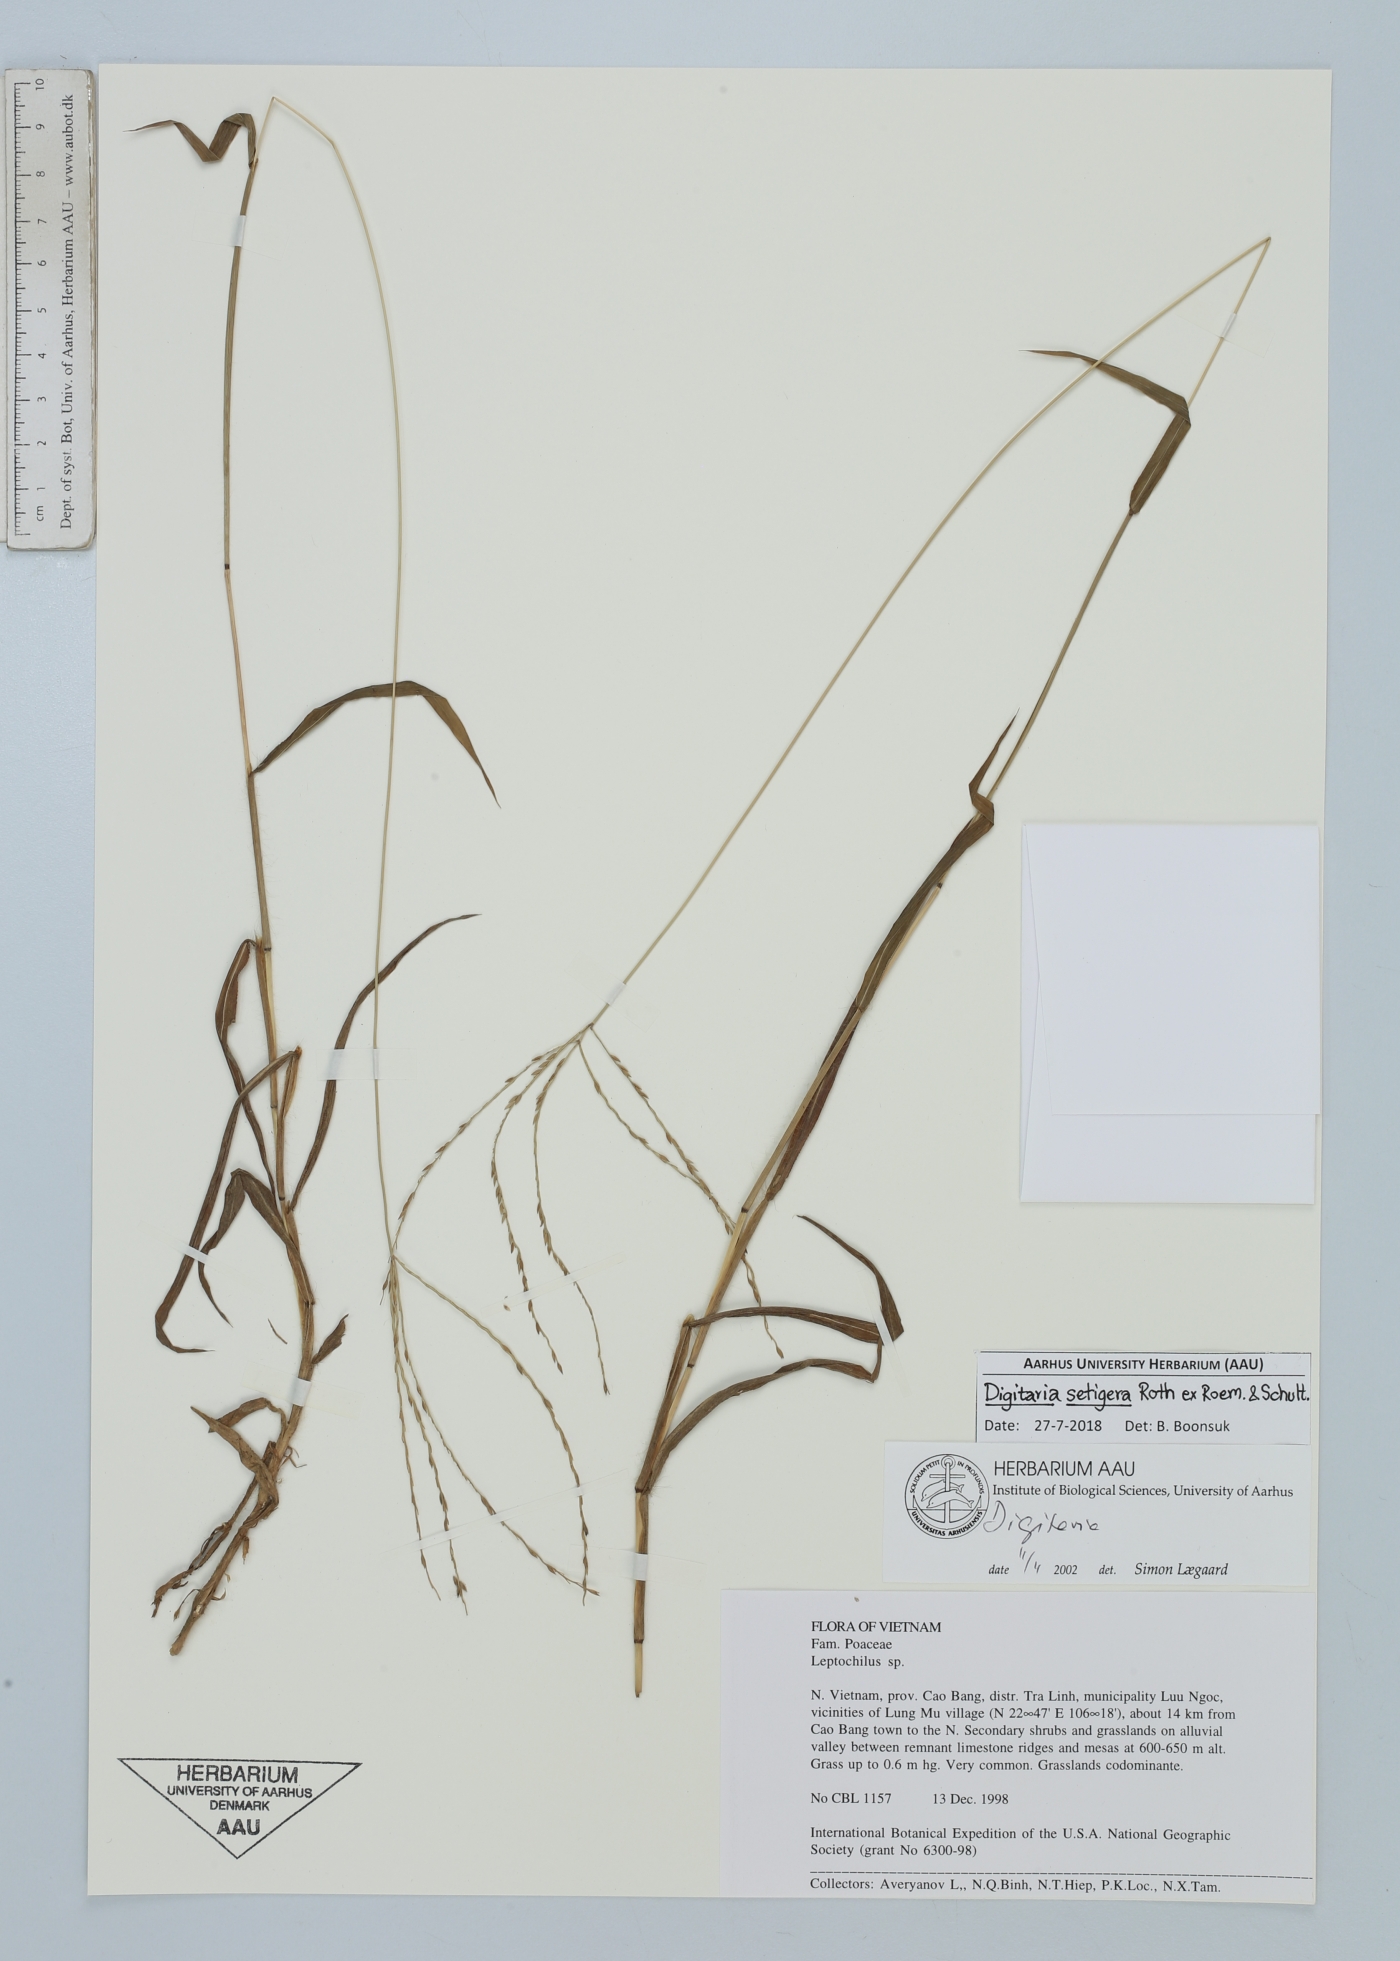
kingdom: Plantae
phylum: Tracheophyta
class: Liliopsida
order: Poales
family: Poaceae
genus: Digitaria
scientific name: Digitaria setigera
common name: East indian crabgrass
